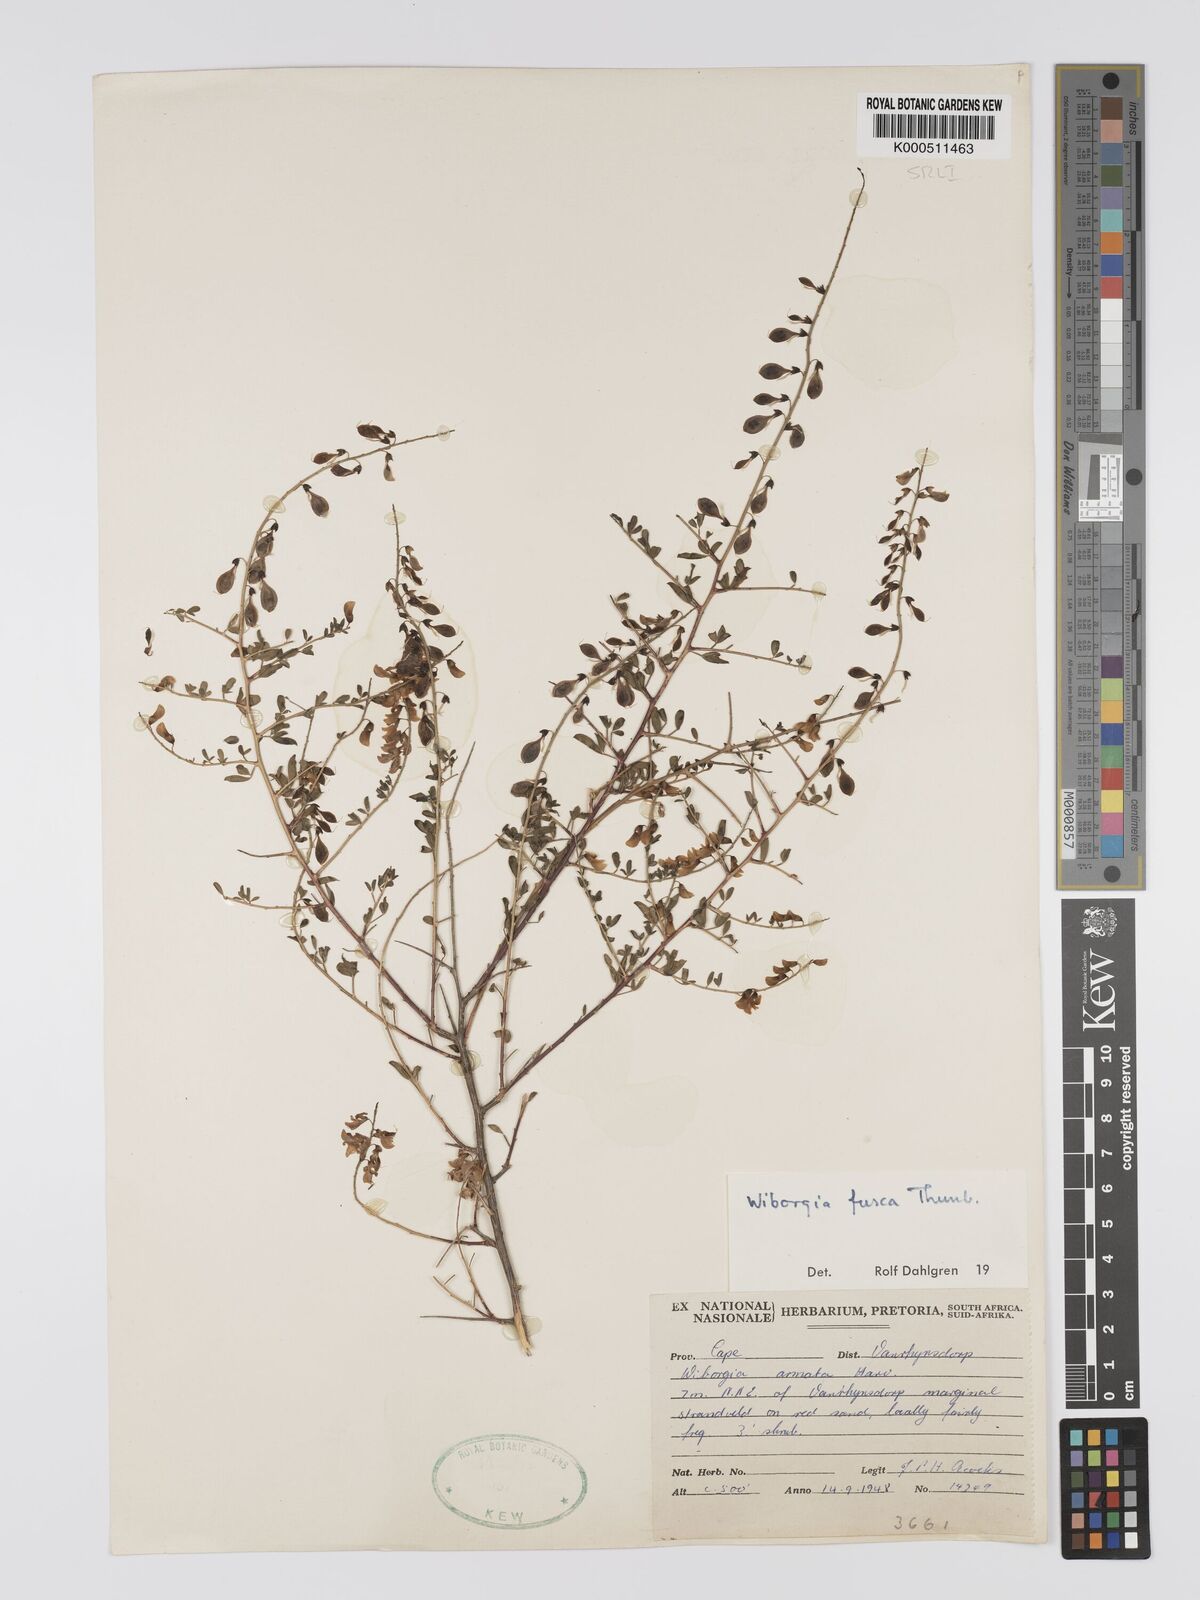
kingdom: Plantae
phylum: Tracheophyta
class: Magnoliopsida
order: Fabales
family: Fabaceae
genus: Wiborgia
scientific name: Wiborgia fusca
